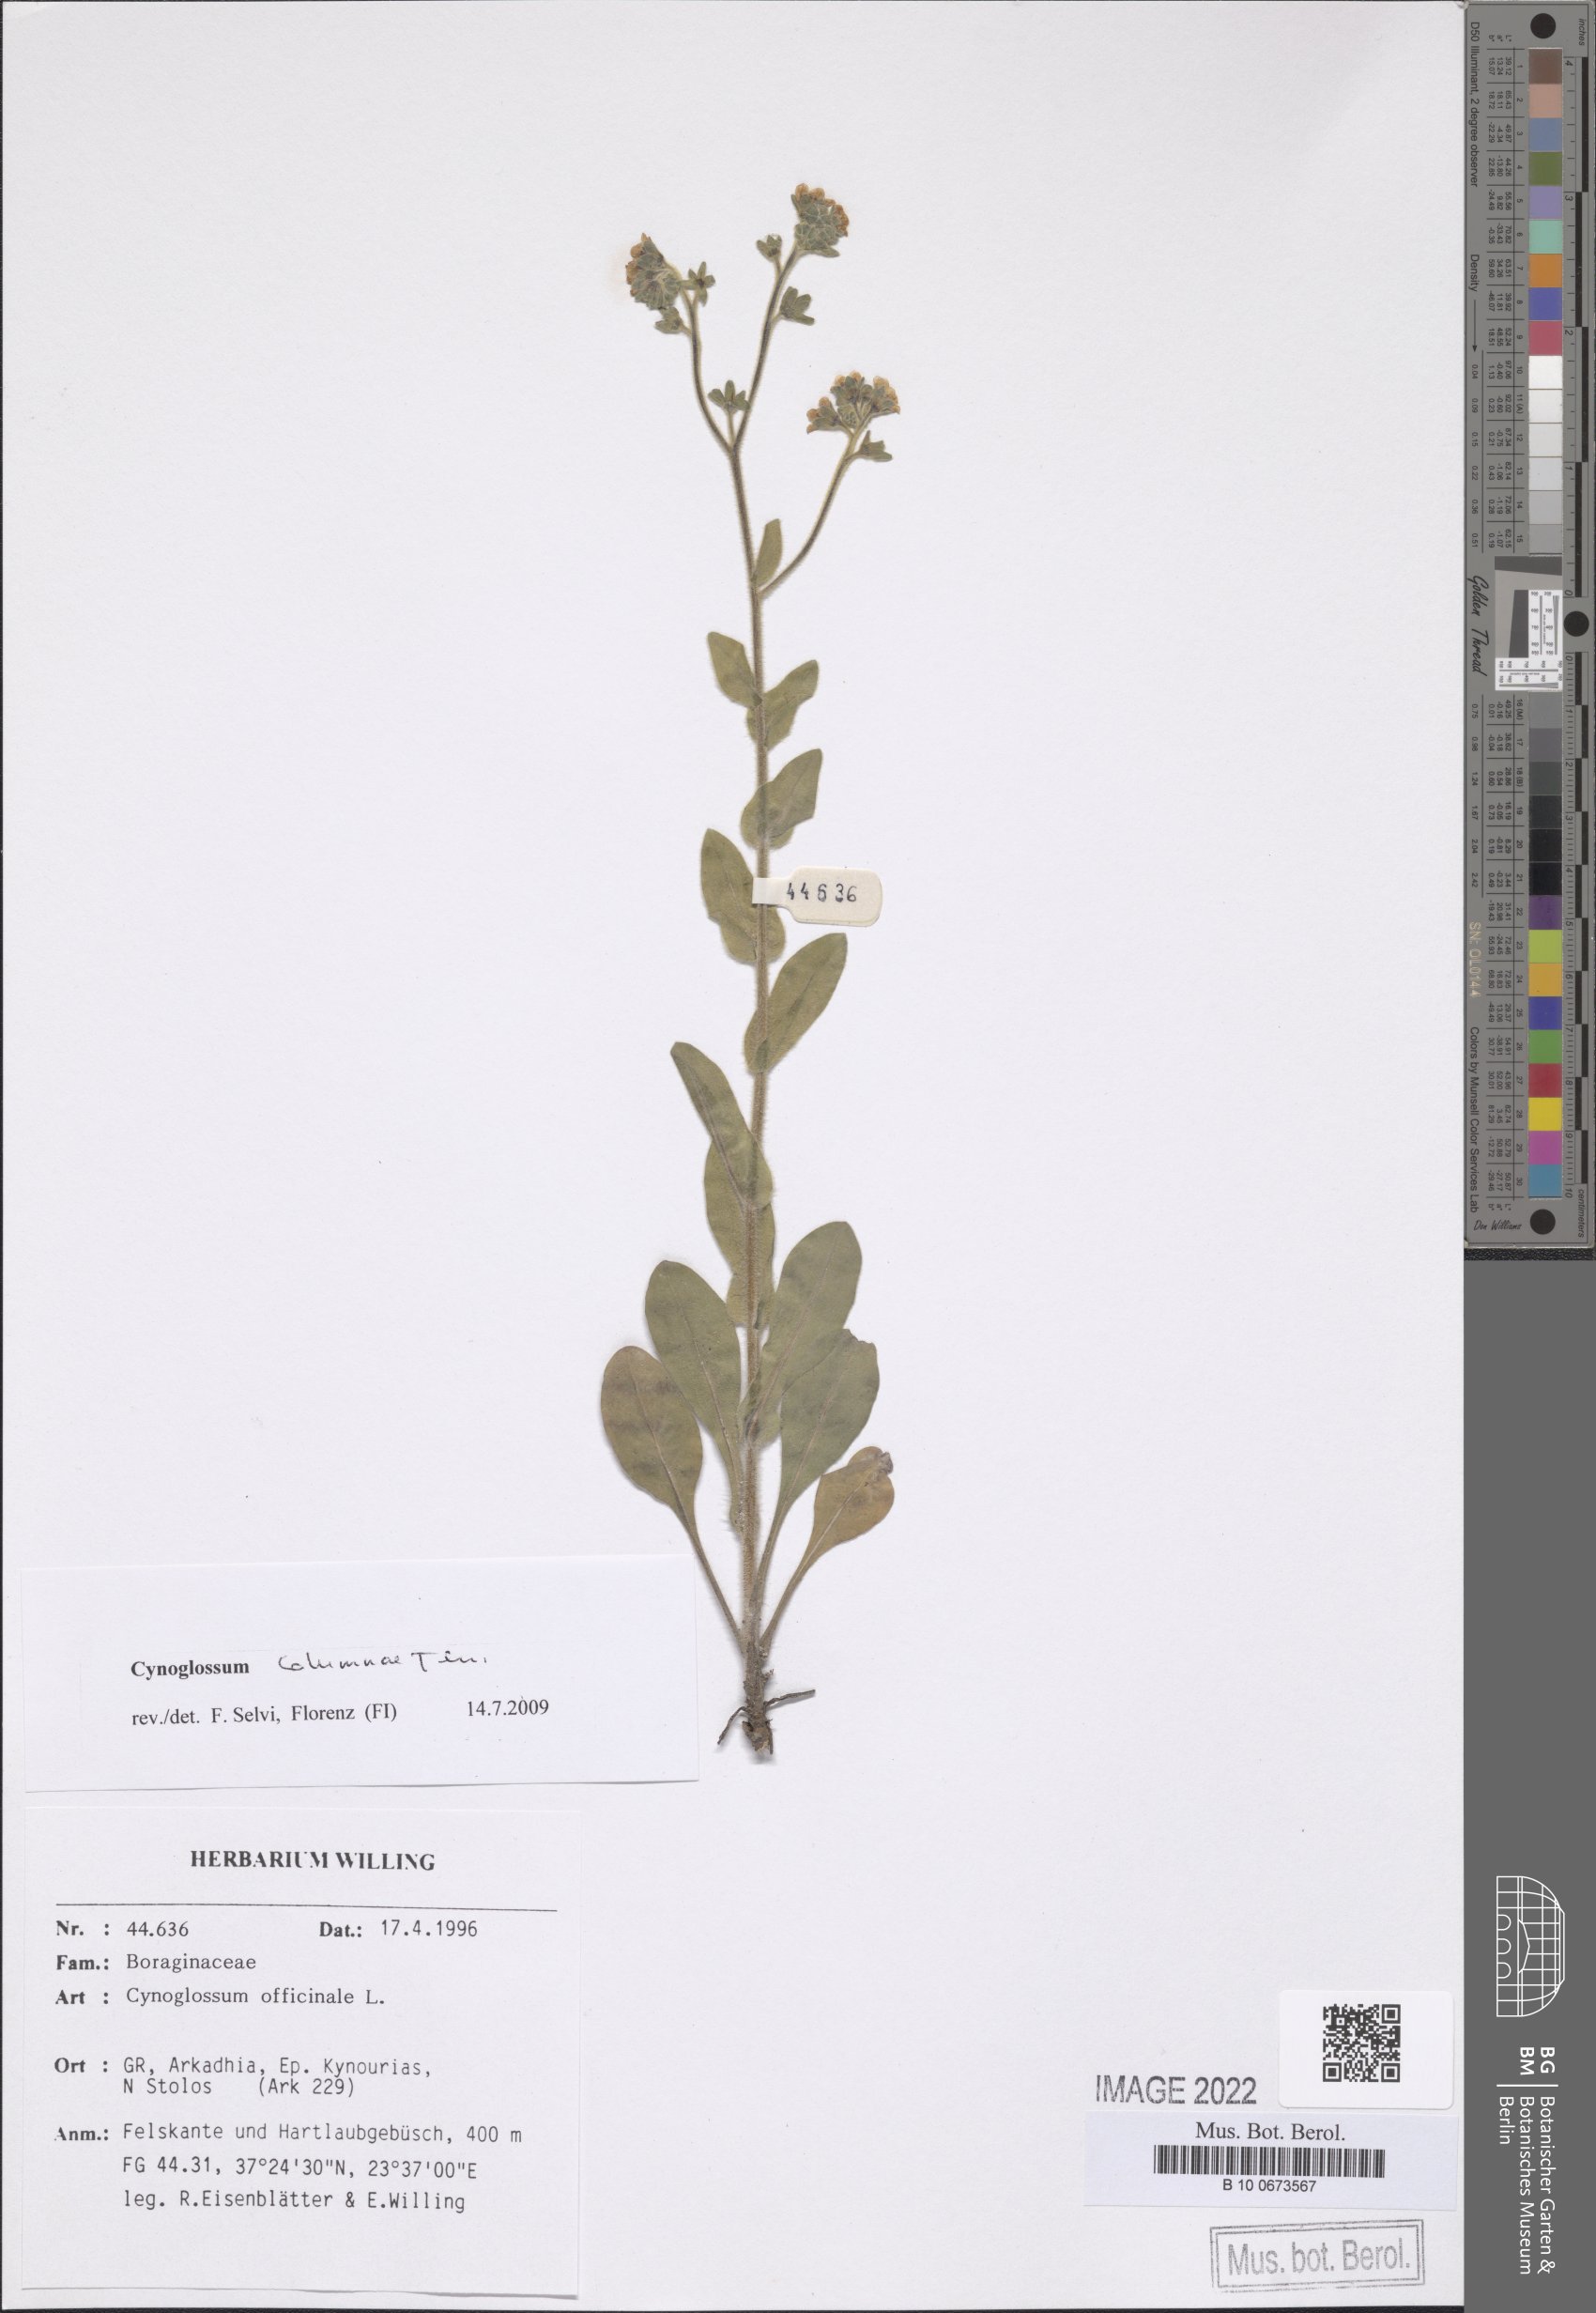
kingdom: Plantae
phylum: Tracheophyta
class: Magnoliopsida
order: Boraginales
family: Boraginaceae
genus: Rindera
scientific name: Rindera columnae
